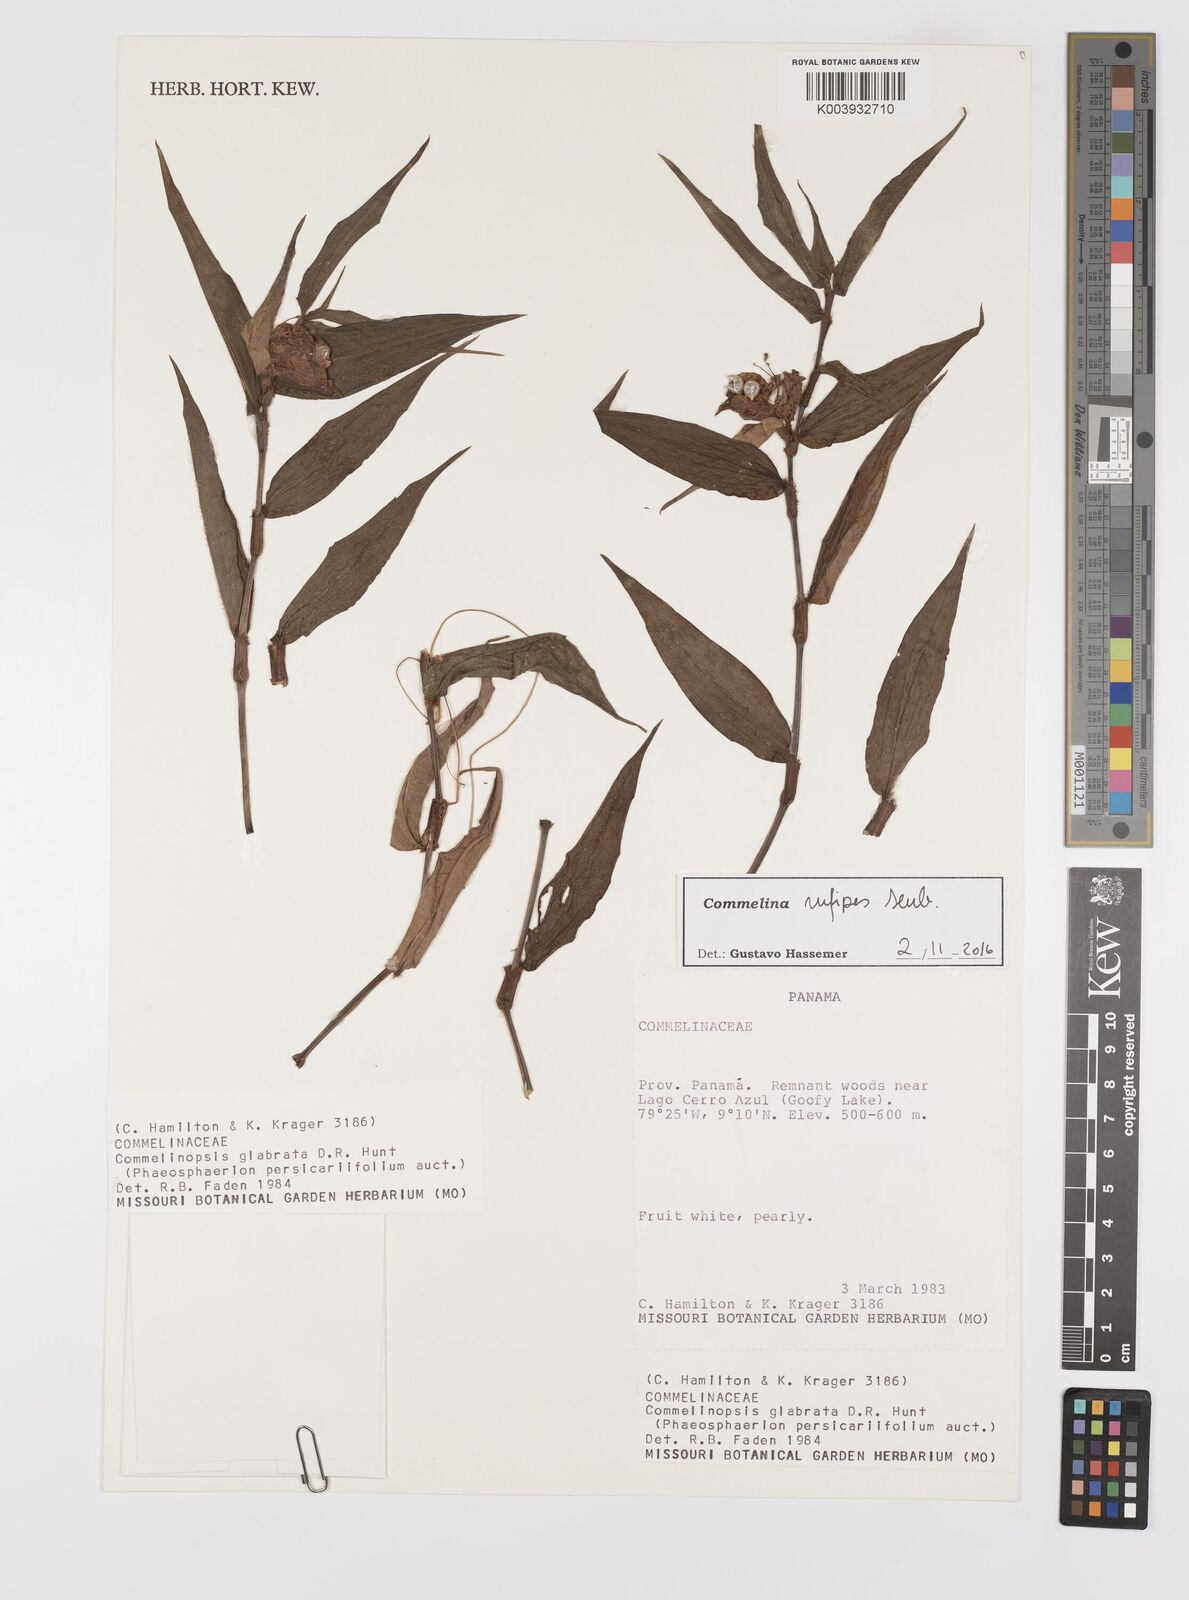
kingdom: Plantae
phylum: Tracheophyta
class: Liliopsida
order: Commelinales
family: Commelinaceae
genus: Commelina
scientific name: Commelina rufipes
